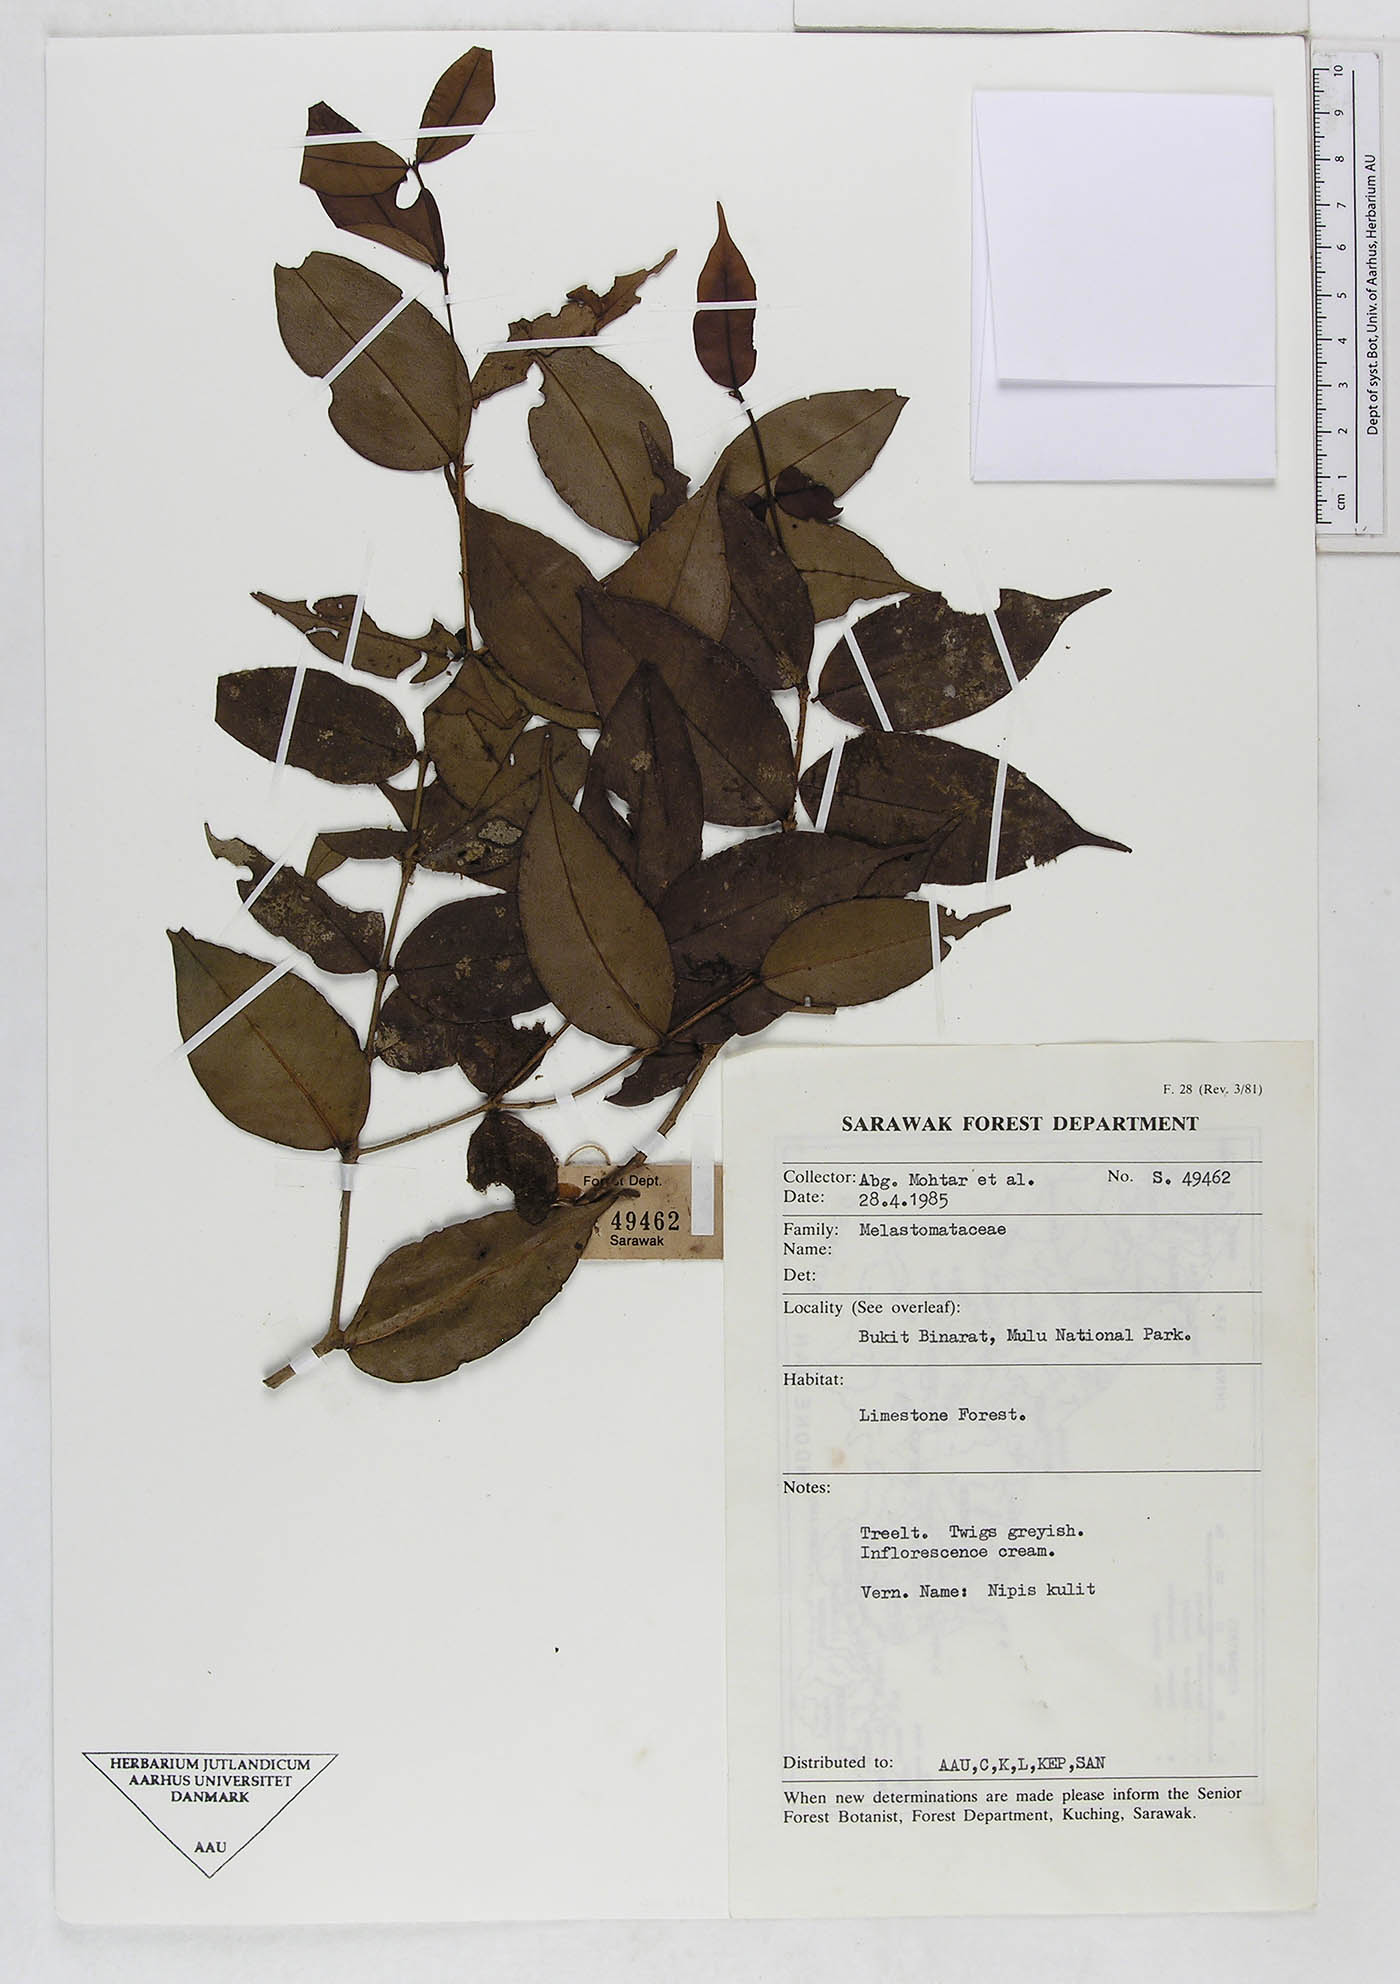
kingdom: Plantae
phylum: Tracheophyta
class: Magnoliopsida
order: Myrtales
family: Melastomataceae
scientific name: Melastomataceae
